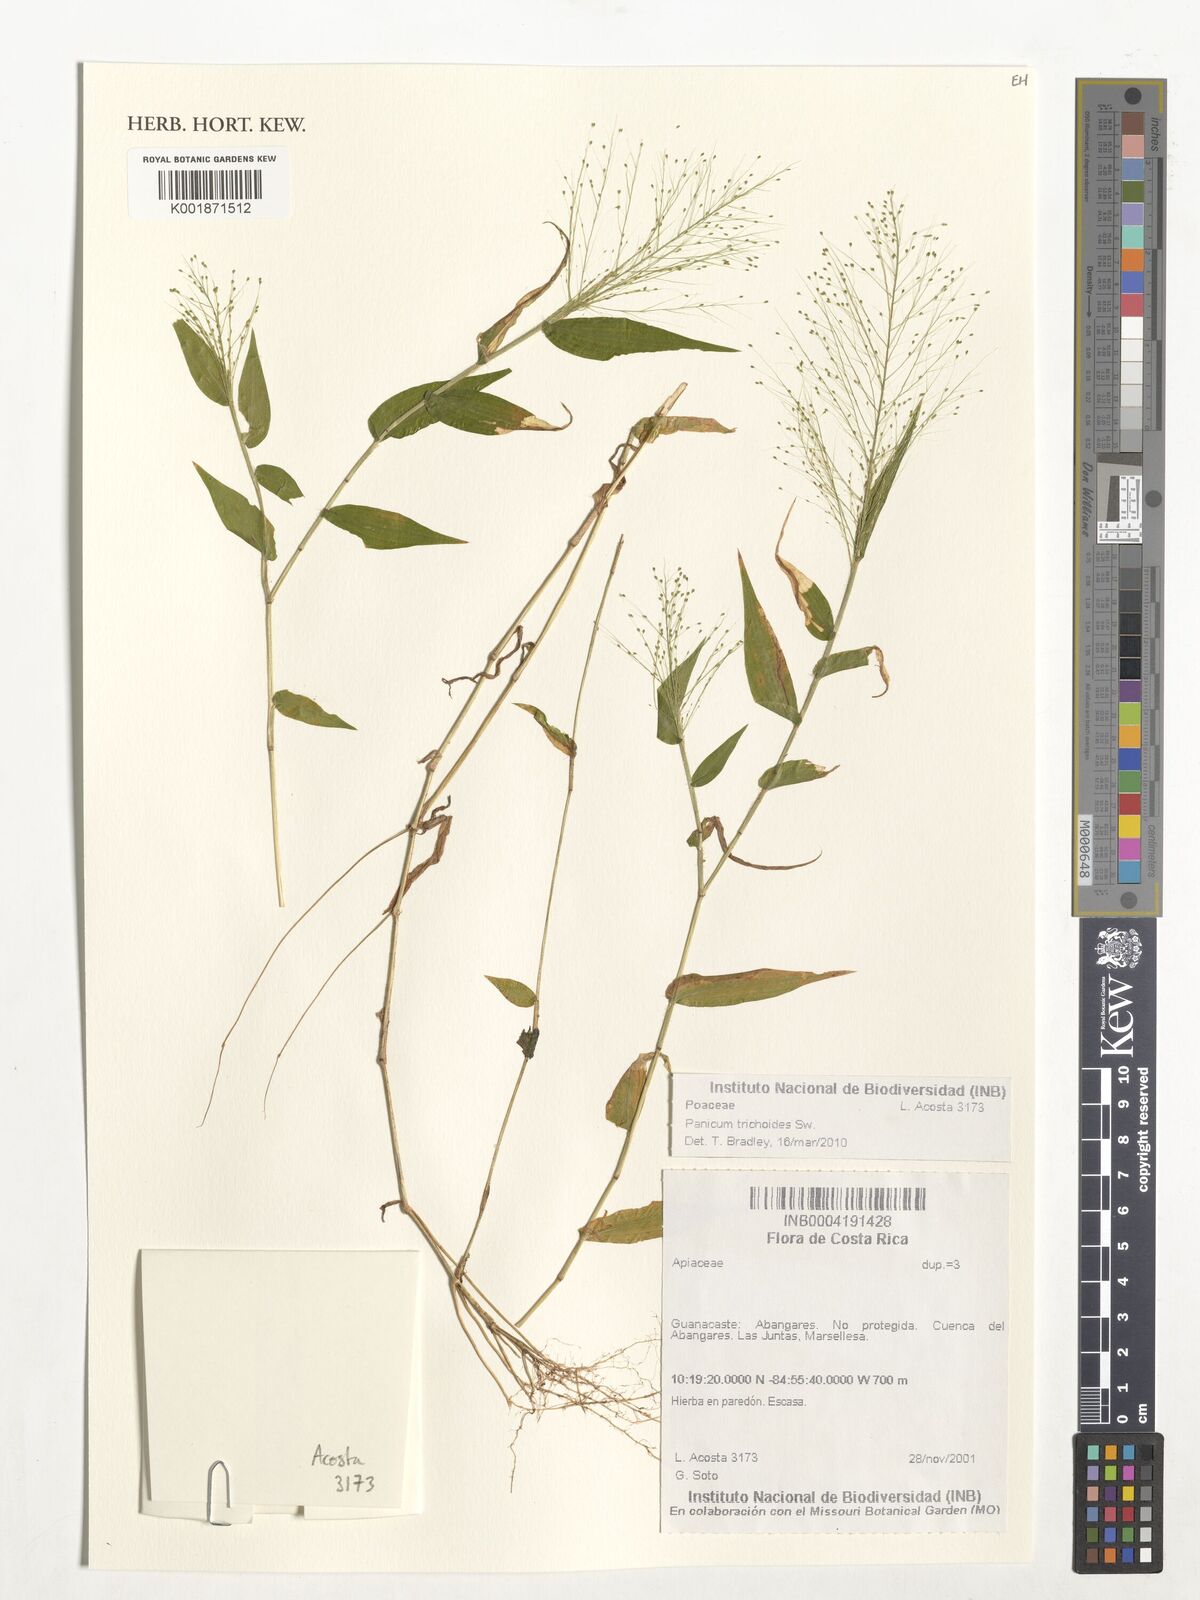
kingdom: Plantae
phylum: Tracheophyta
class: Liliopsida
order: Poales
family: Poaceae
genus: Panicum
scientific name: Panicum trichoides
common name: Tickle grass
